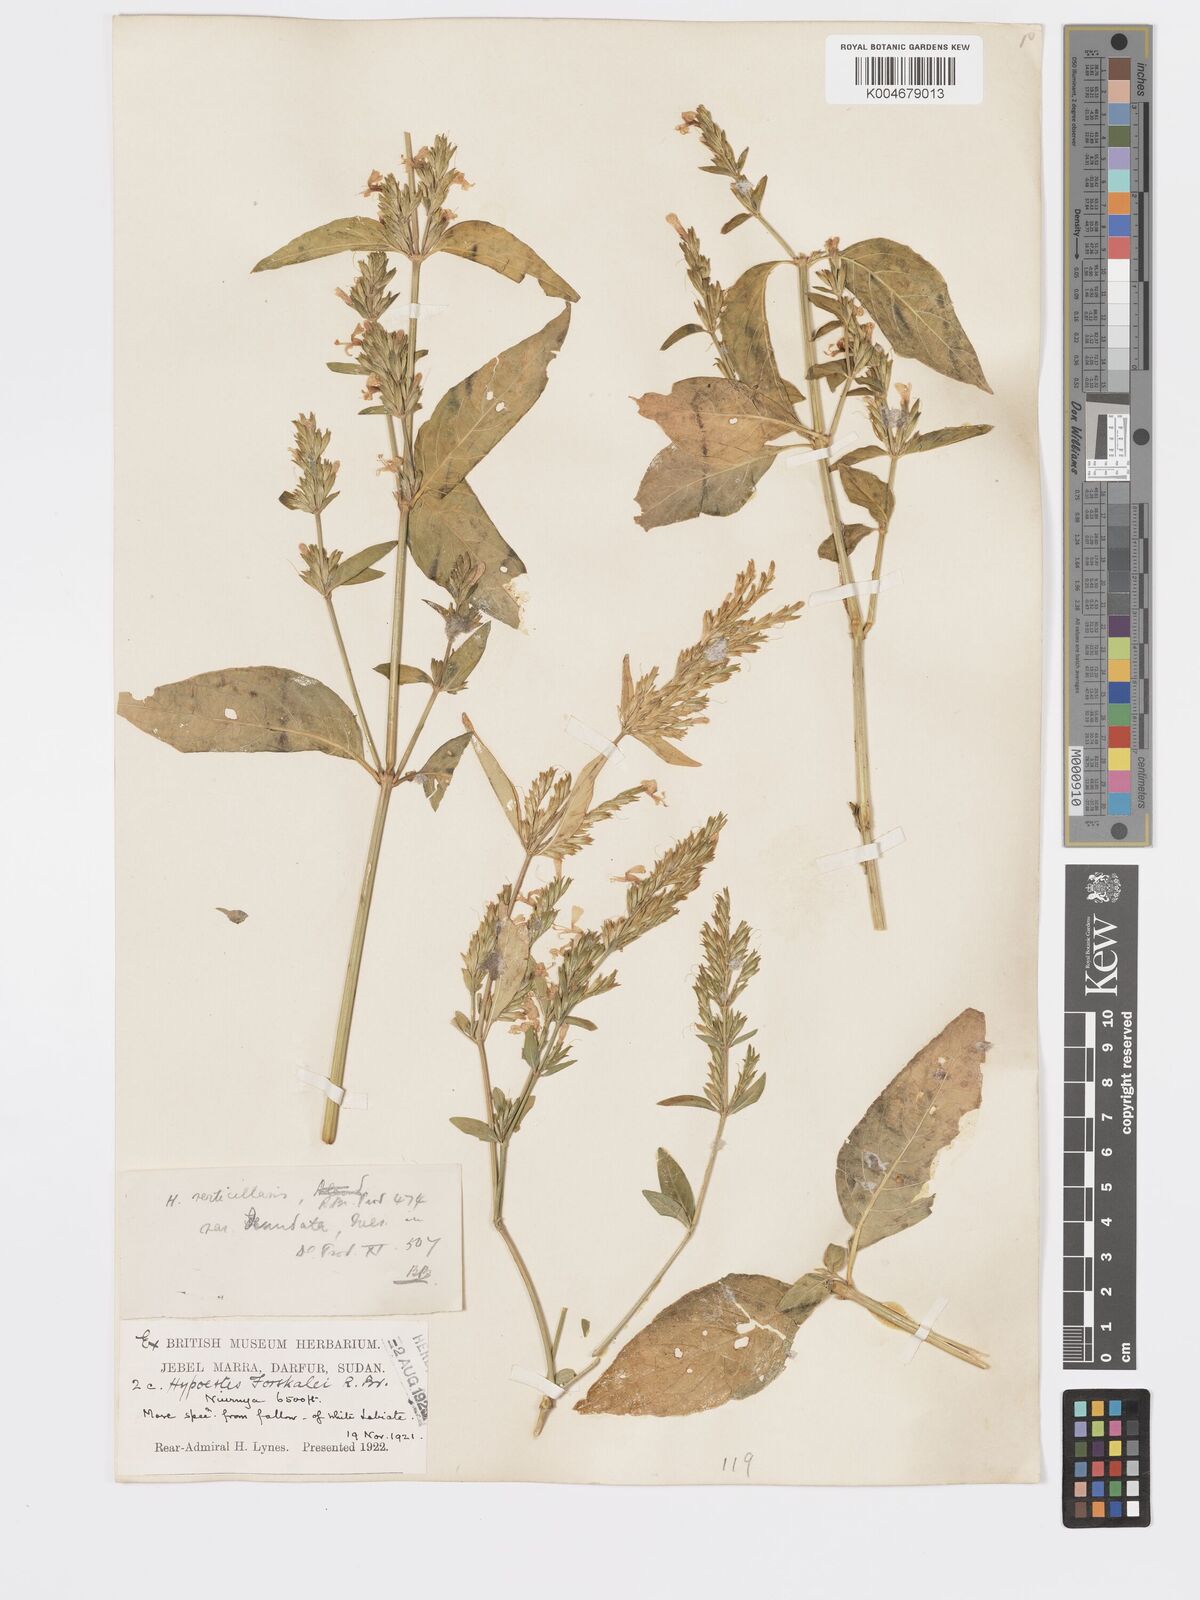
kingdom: Plantae
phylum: Tracheophyta
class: Magnoliopsida
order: Lamiales
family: Acanthaceae
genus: Hypoestes
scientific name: Hypoestes forskaolii
